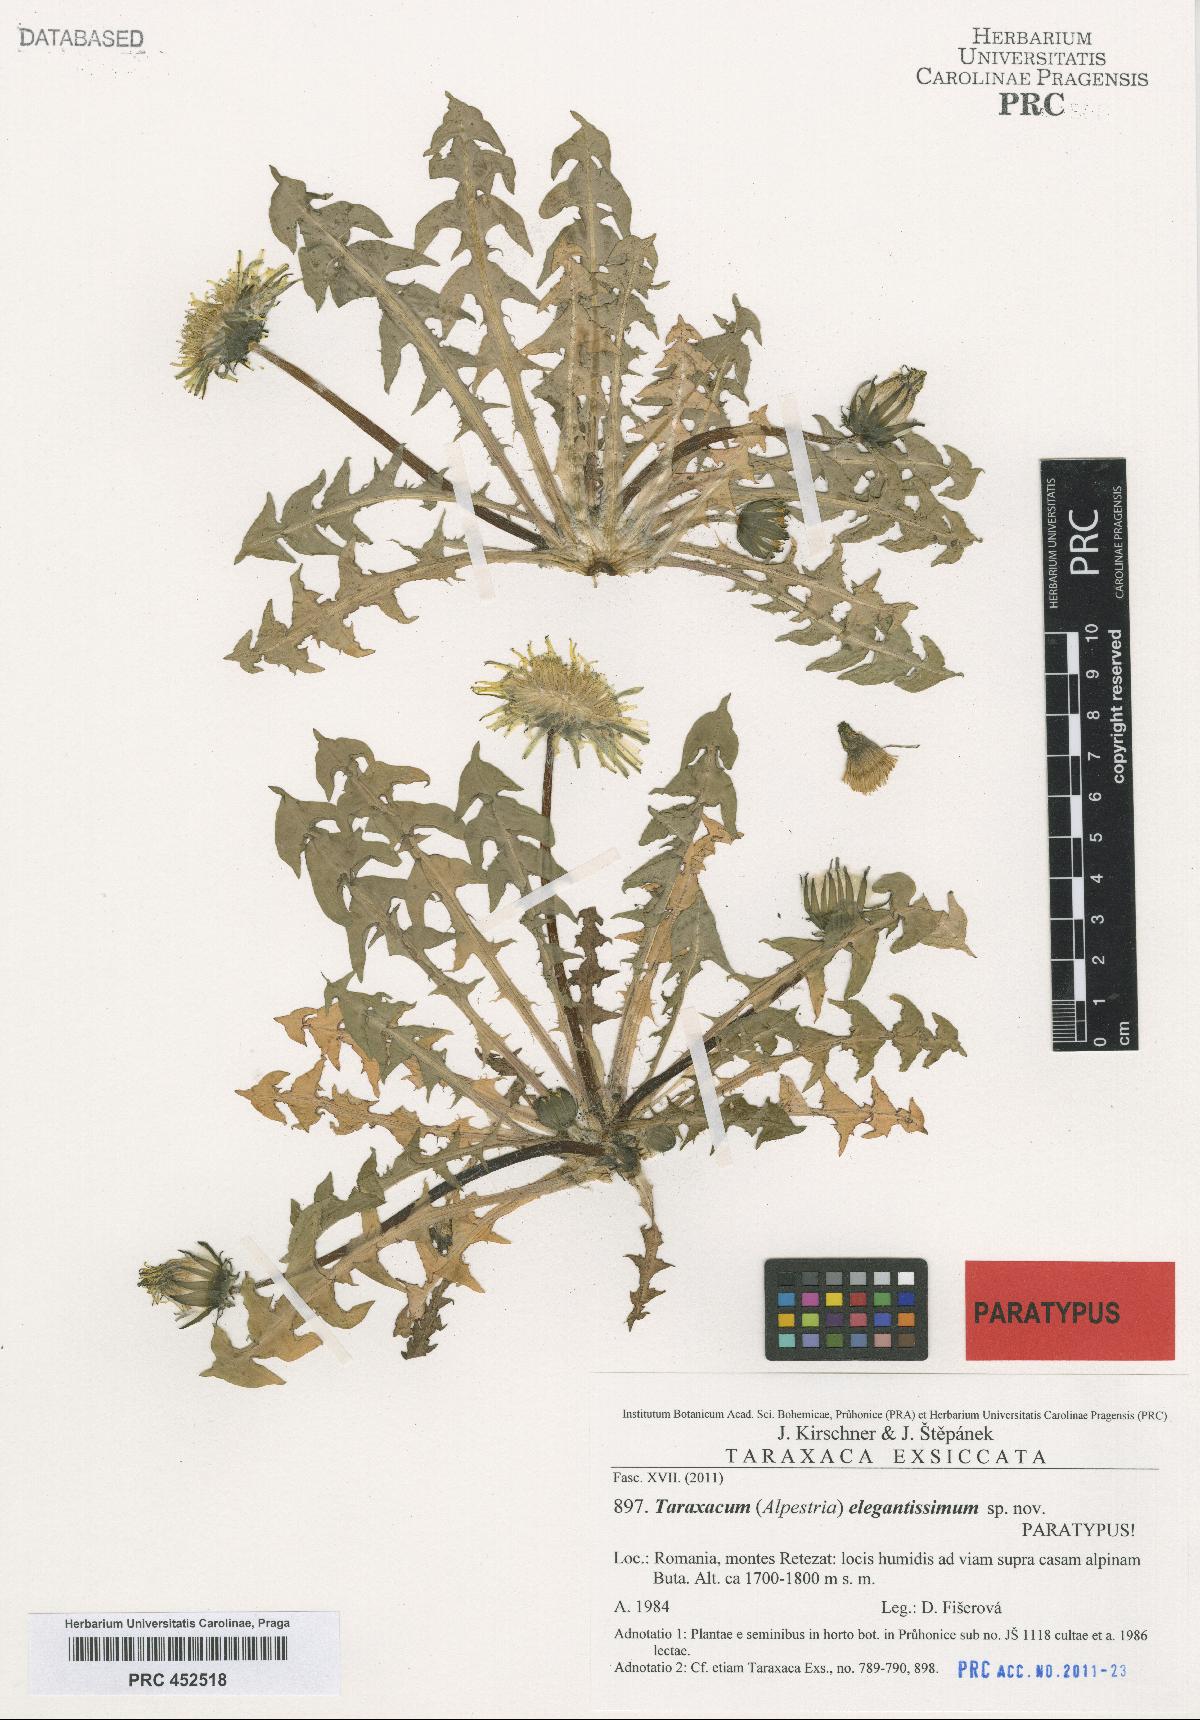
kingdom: Plantae
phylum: Tracheophyta
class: Magnoliopsida
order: Asterales
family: Asteraceae
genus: Taraxacum
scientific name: Taraxacum elegantissimum
